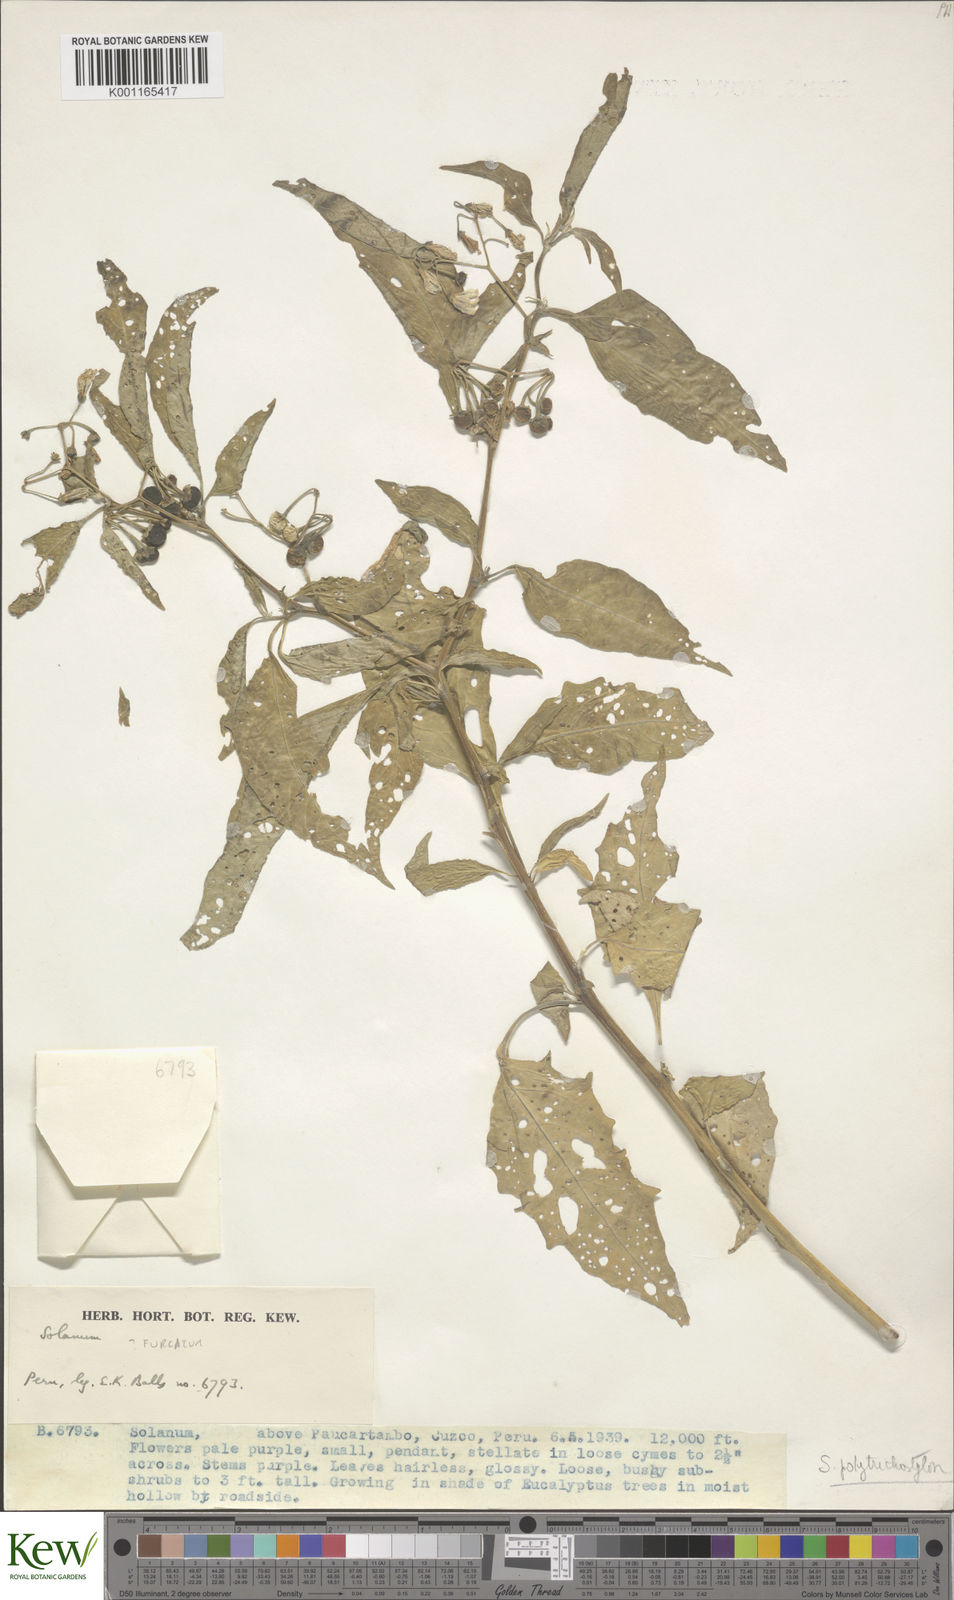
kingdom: Plantae
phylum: Tracheophyta
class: Magnoliopsida
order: Solanales
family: Solanaceae
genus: Solanum
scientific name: Solanum polytrichostylum
